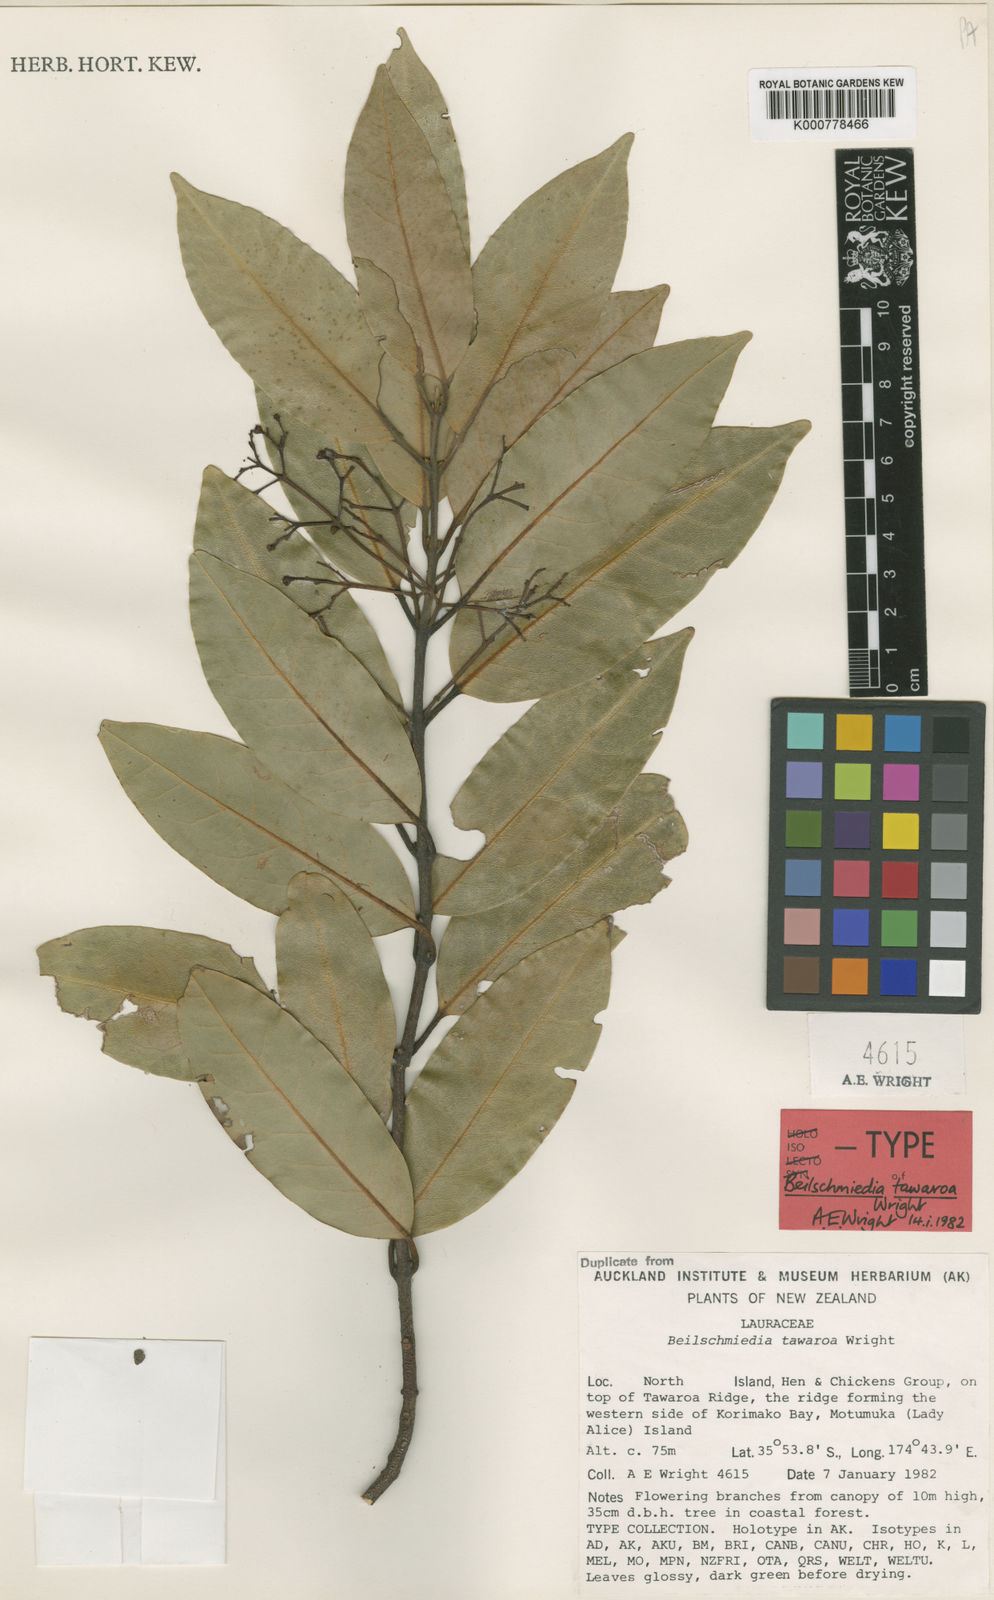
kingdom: Plantae
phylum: Tracheophyta
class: Magnoliopsida
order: Laurales
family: Lauraceae
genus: Beilschmiedia
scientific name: Beilschmiedia
